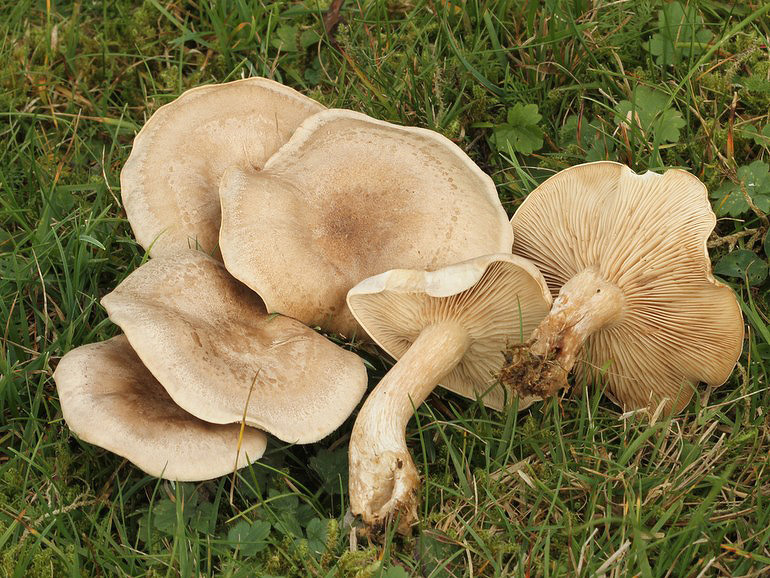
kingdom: Fungi
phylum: Basidiomycota
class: Agaricomycetes
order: Agaricales
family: Tricholomataceae
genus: Lepista
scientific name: Lepista panaeolus
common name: marmoreret hekseringshat
